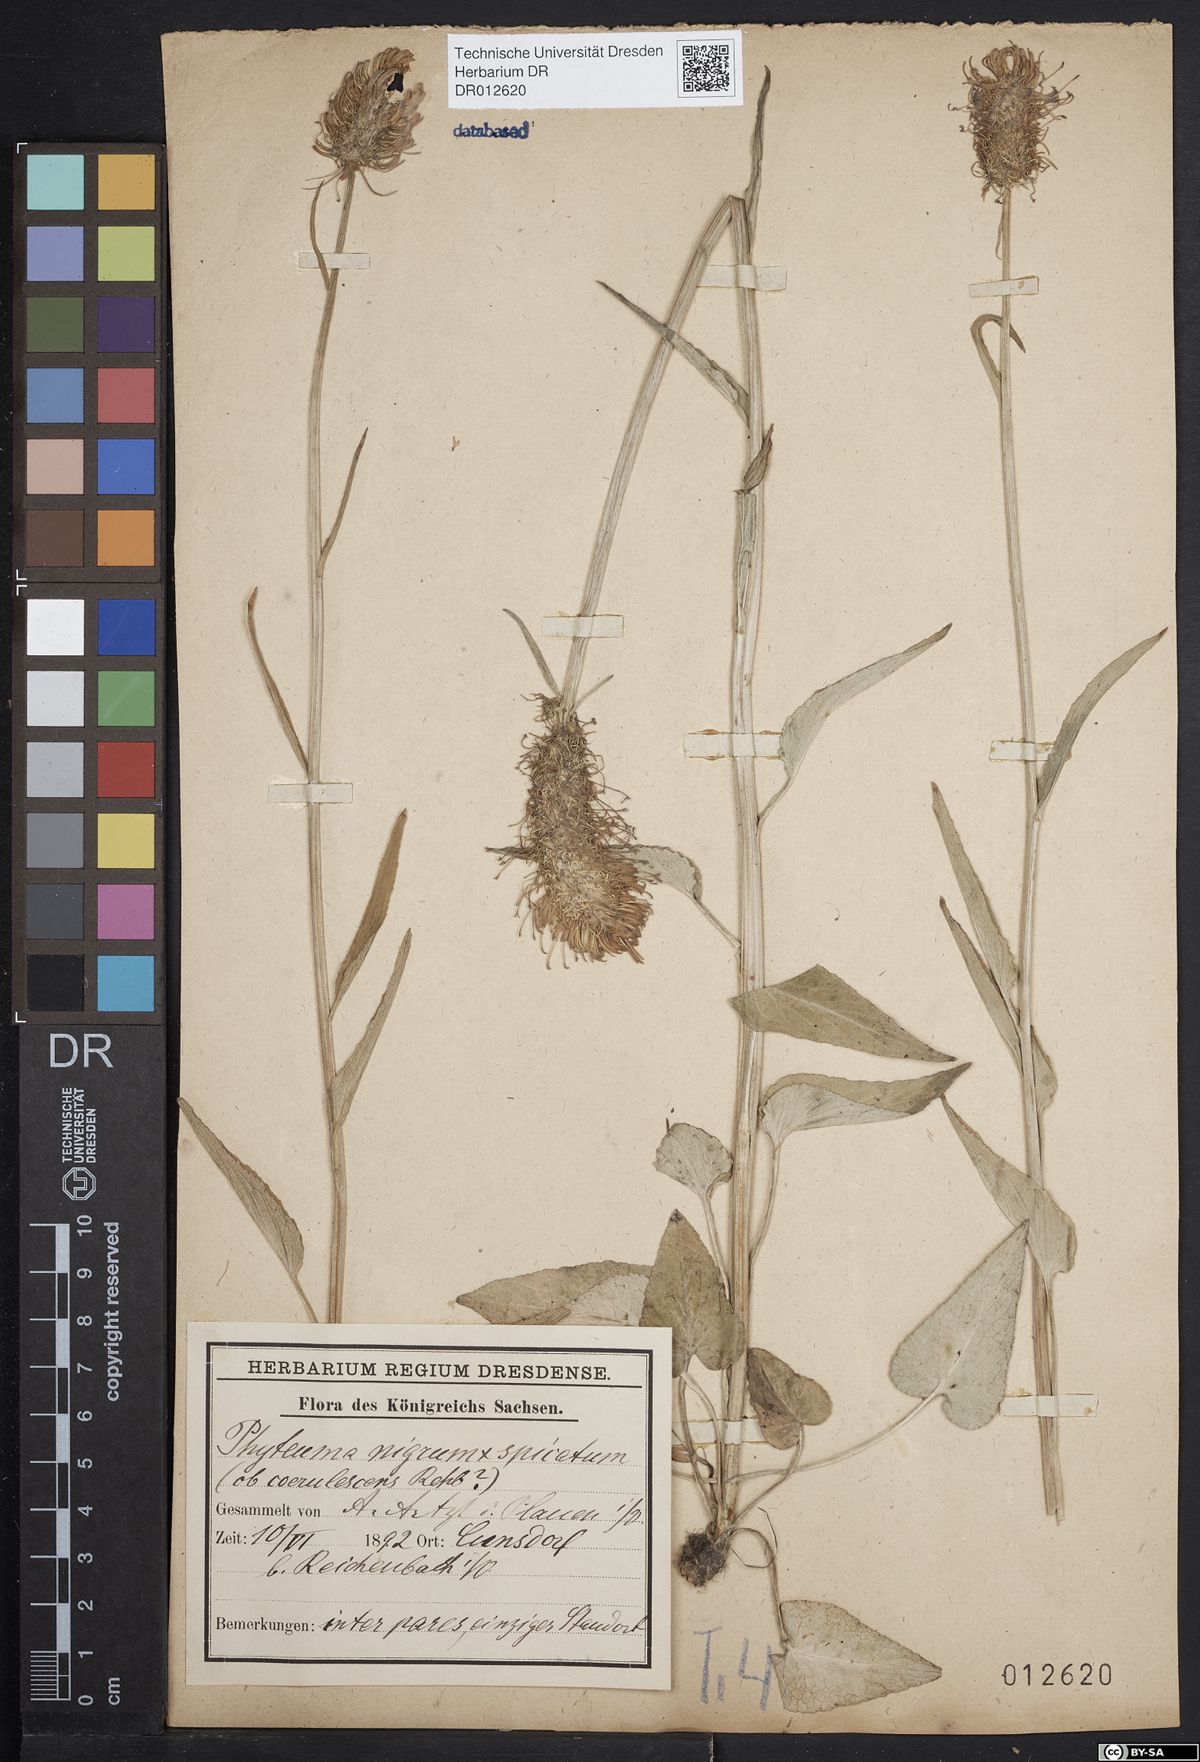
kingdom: Plantae
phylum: Tracheophyta
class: Magnoliopsida
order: Asterales
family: Campanulaceae
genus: Phyteuma
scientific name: Phyteuma adulterinum
